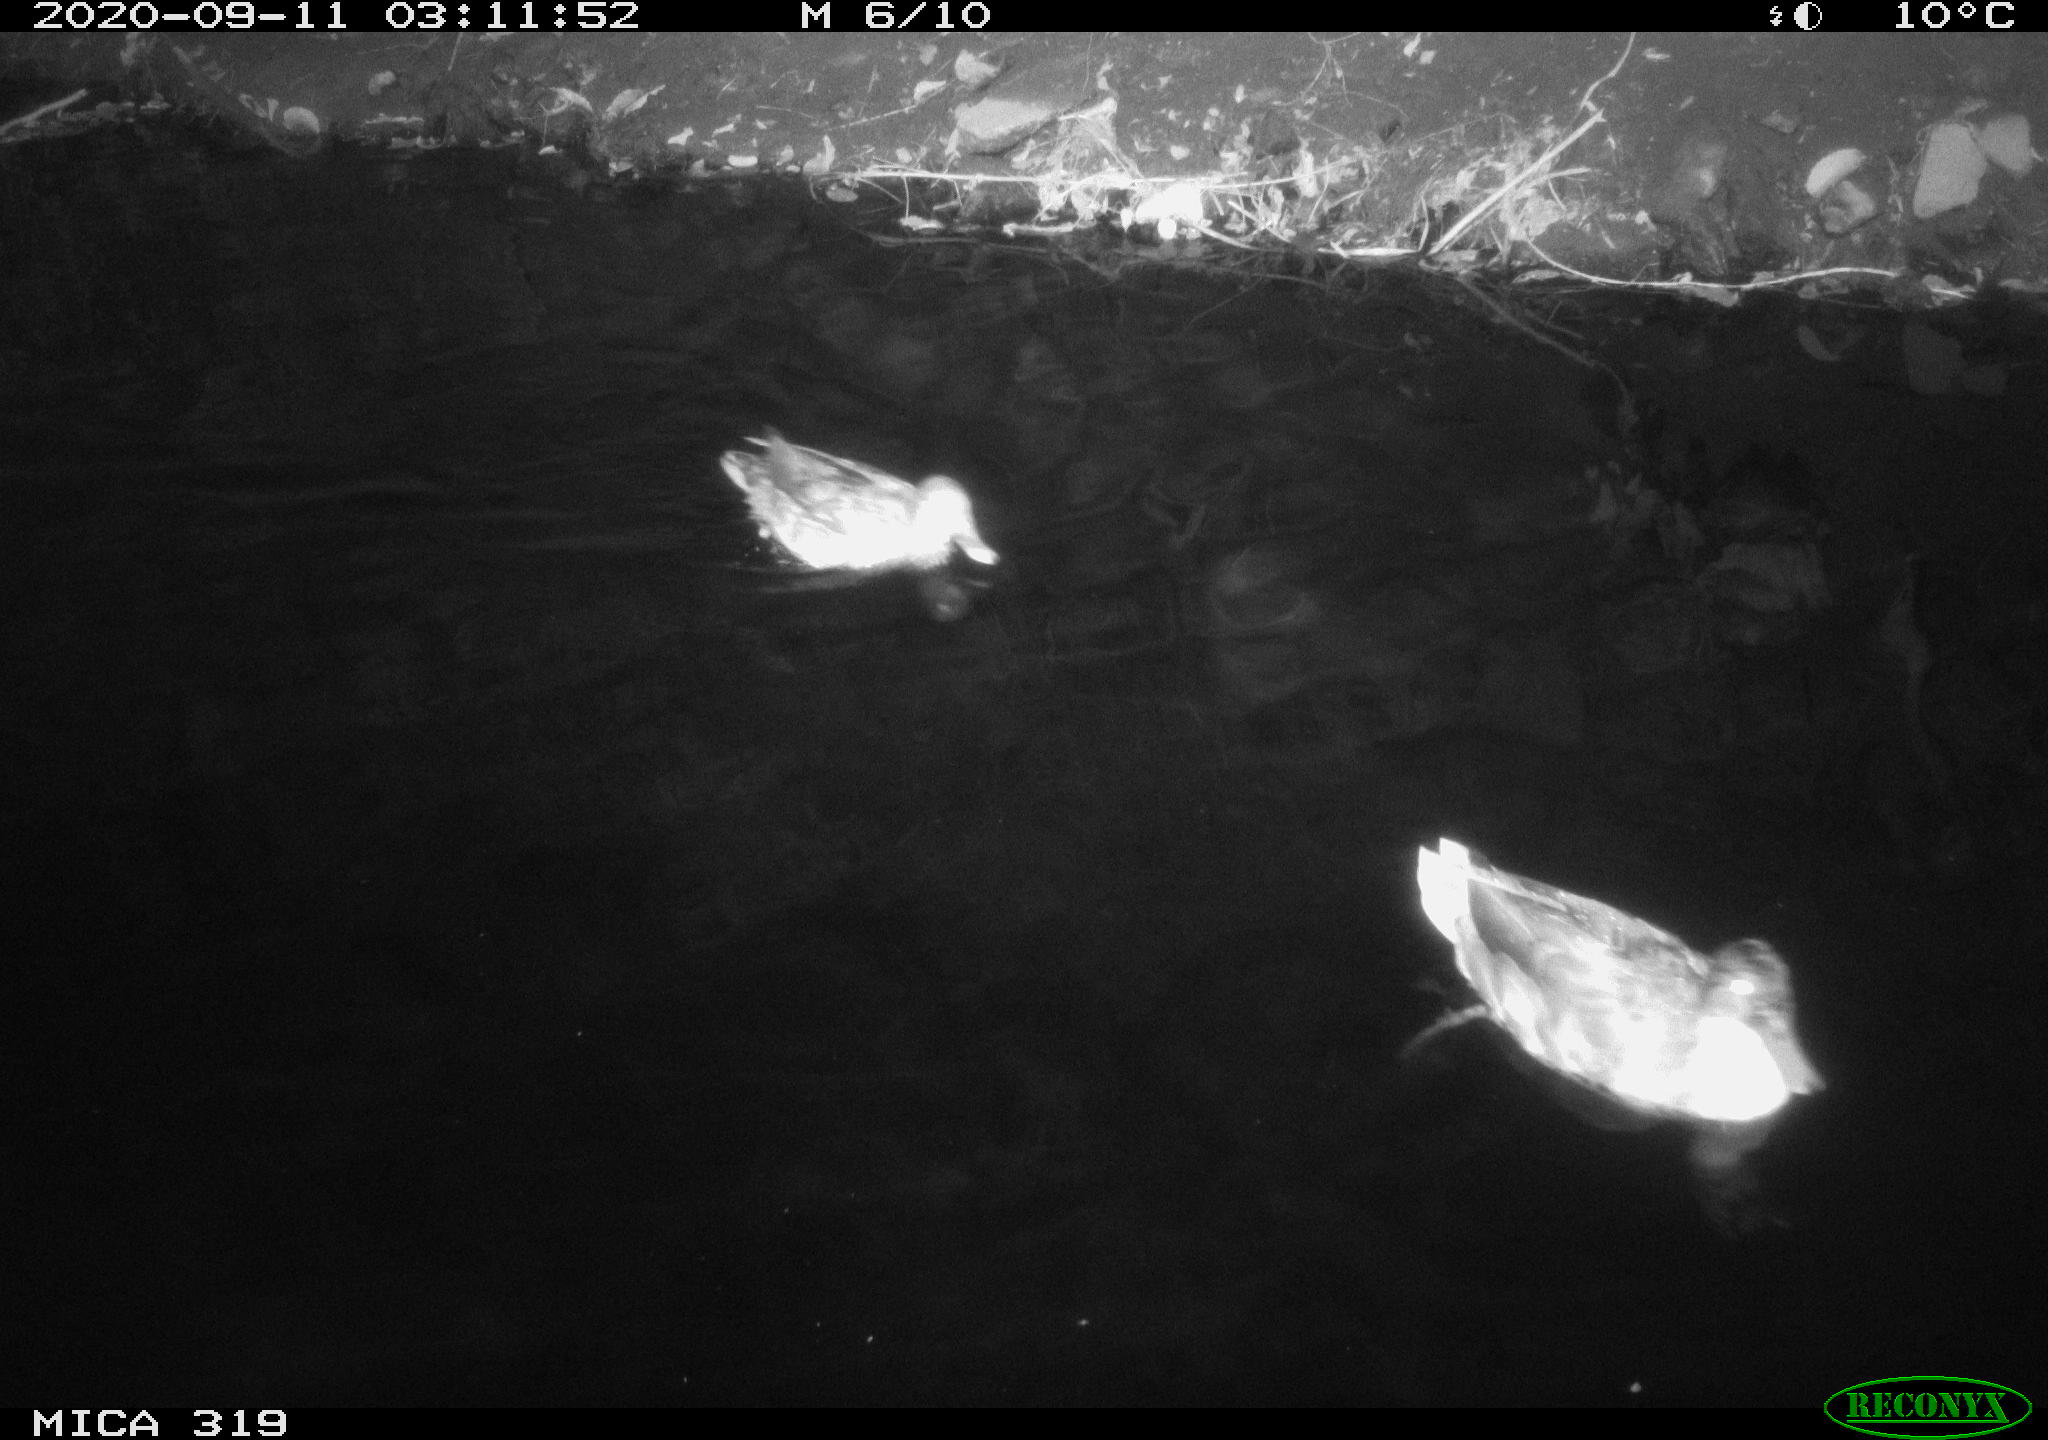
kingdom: Animalia
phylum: Chordata
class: Aves
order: Anseriformes
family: Anatidae
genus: Anas
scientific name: Anas platyrhynchos
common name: Mallard
